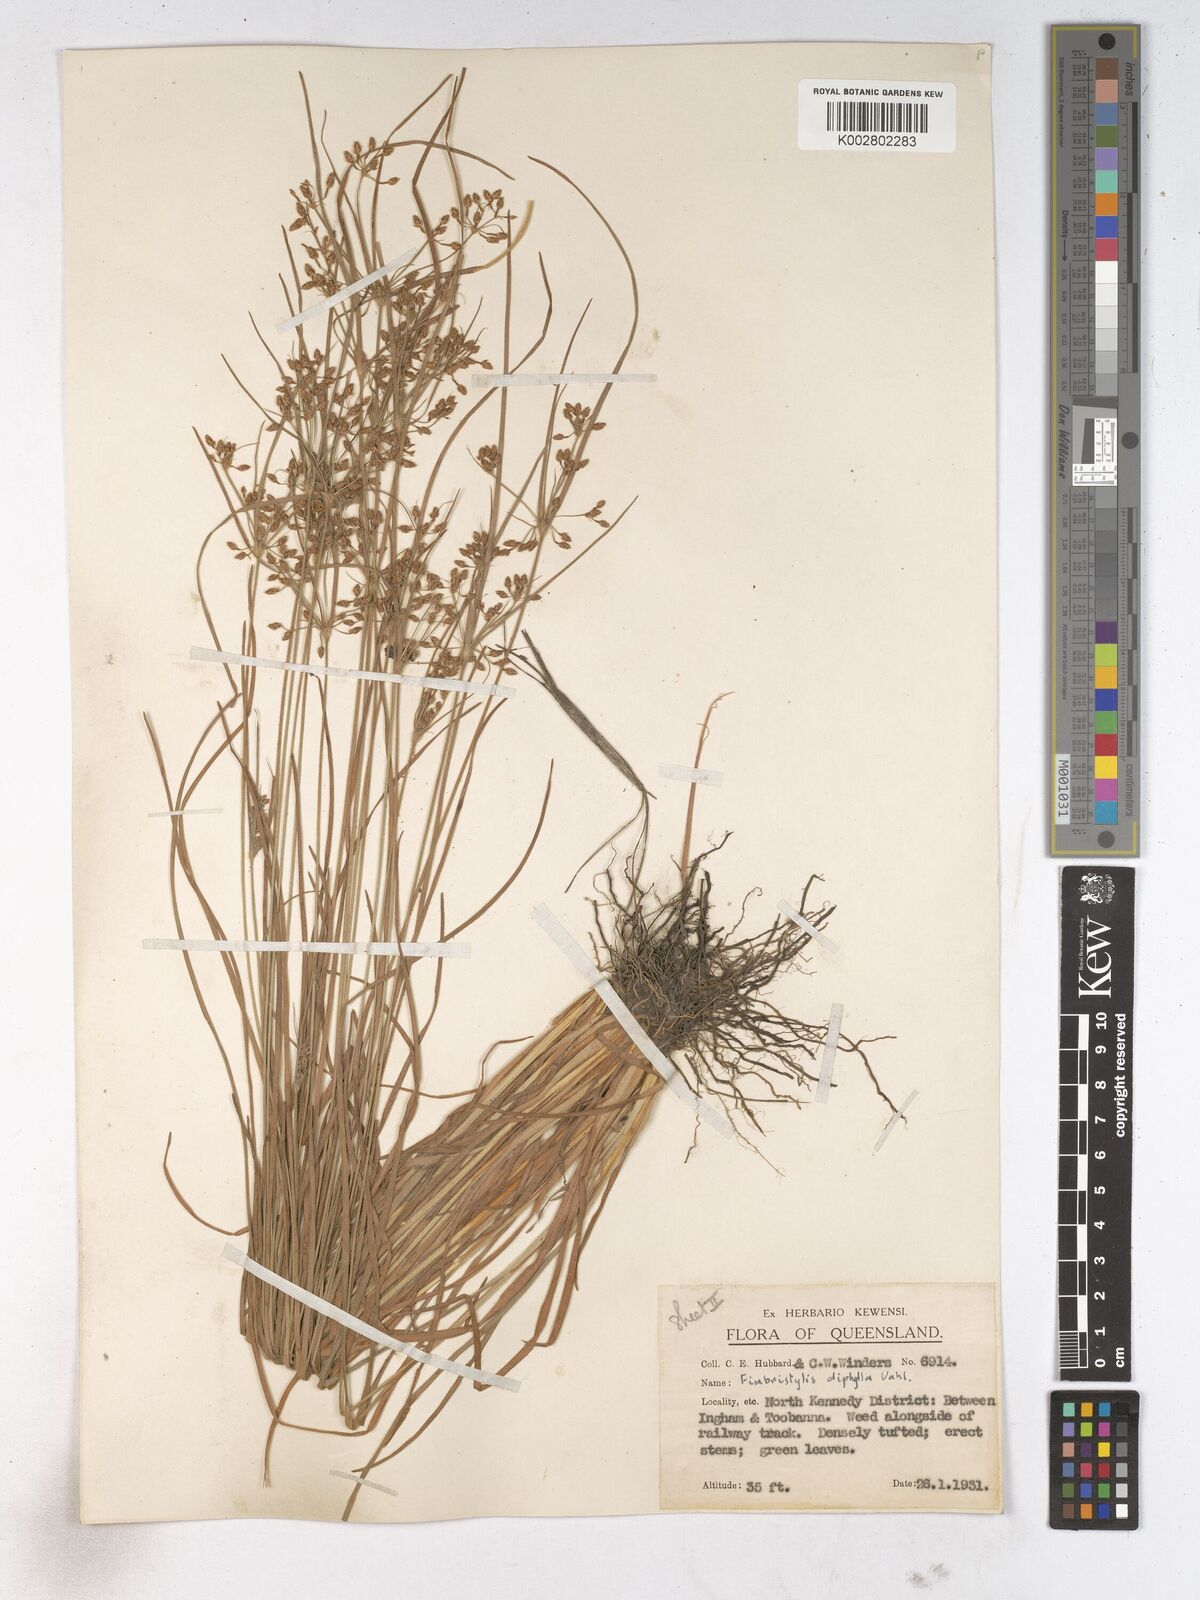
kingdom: Plantae
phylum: Tracheophyta
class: Liliopsida
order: Poales
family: Cyperaceae
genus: Fimbristylis
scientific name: Fimbristylis dichotoma
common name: Forked fimbry
